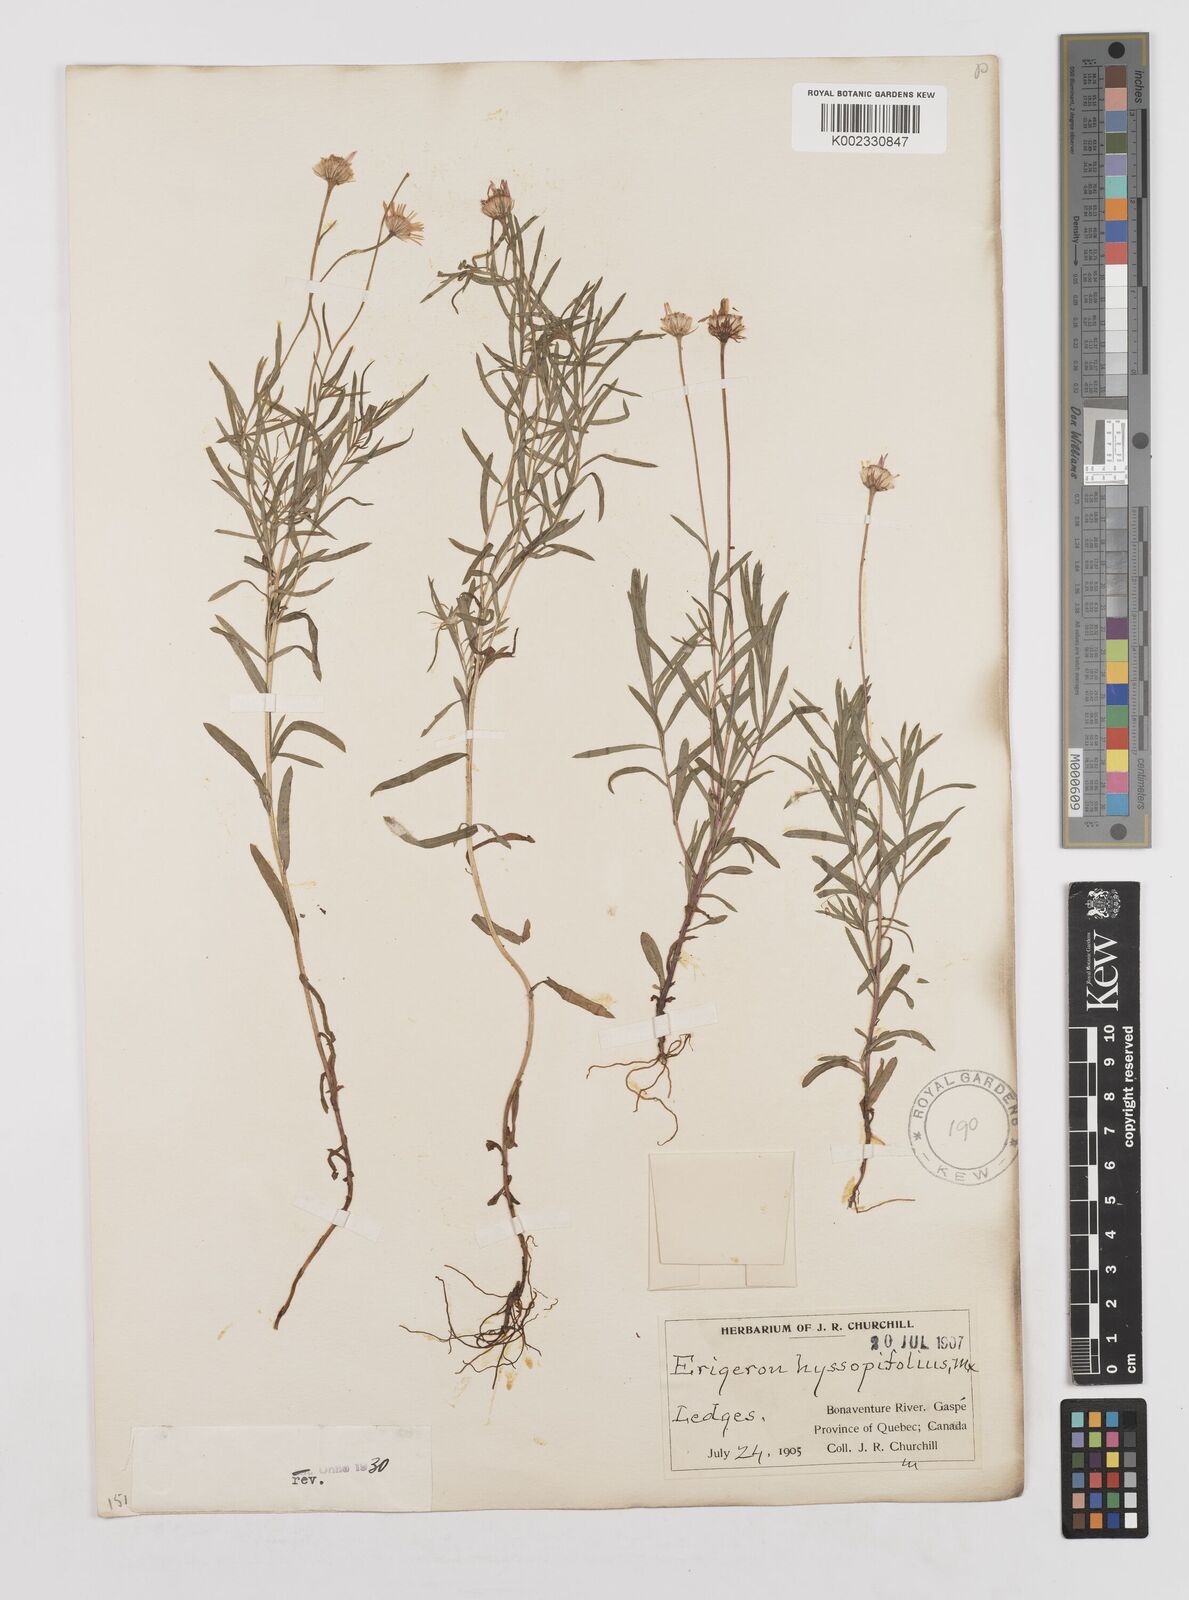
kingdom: Plantae
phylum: Tracheophyta
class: Magnoliopsida
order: Asterales
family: Asteraceae
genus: Erigeron
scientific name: Erigeron hyssopifolius
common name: Daisy fleabane
